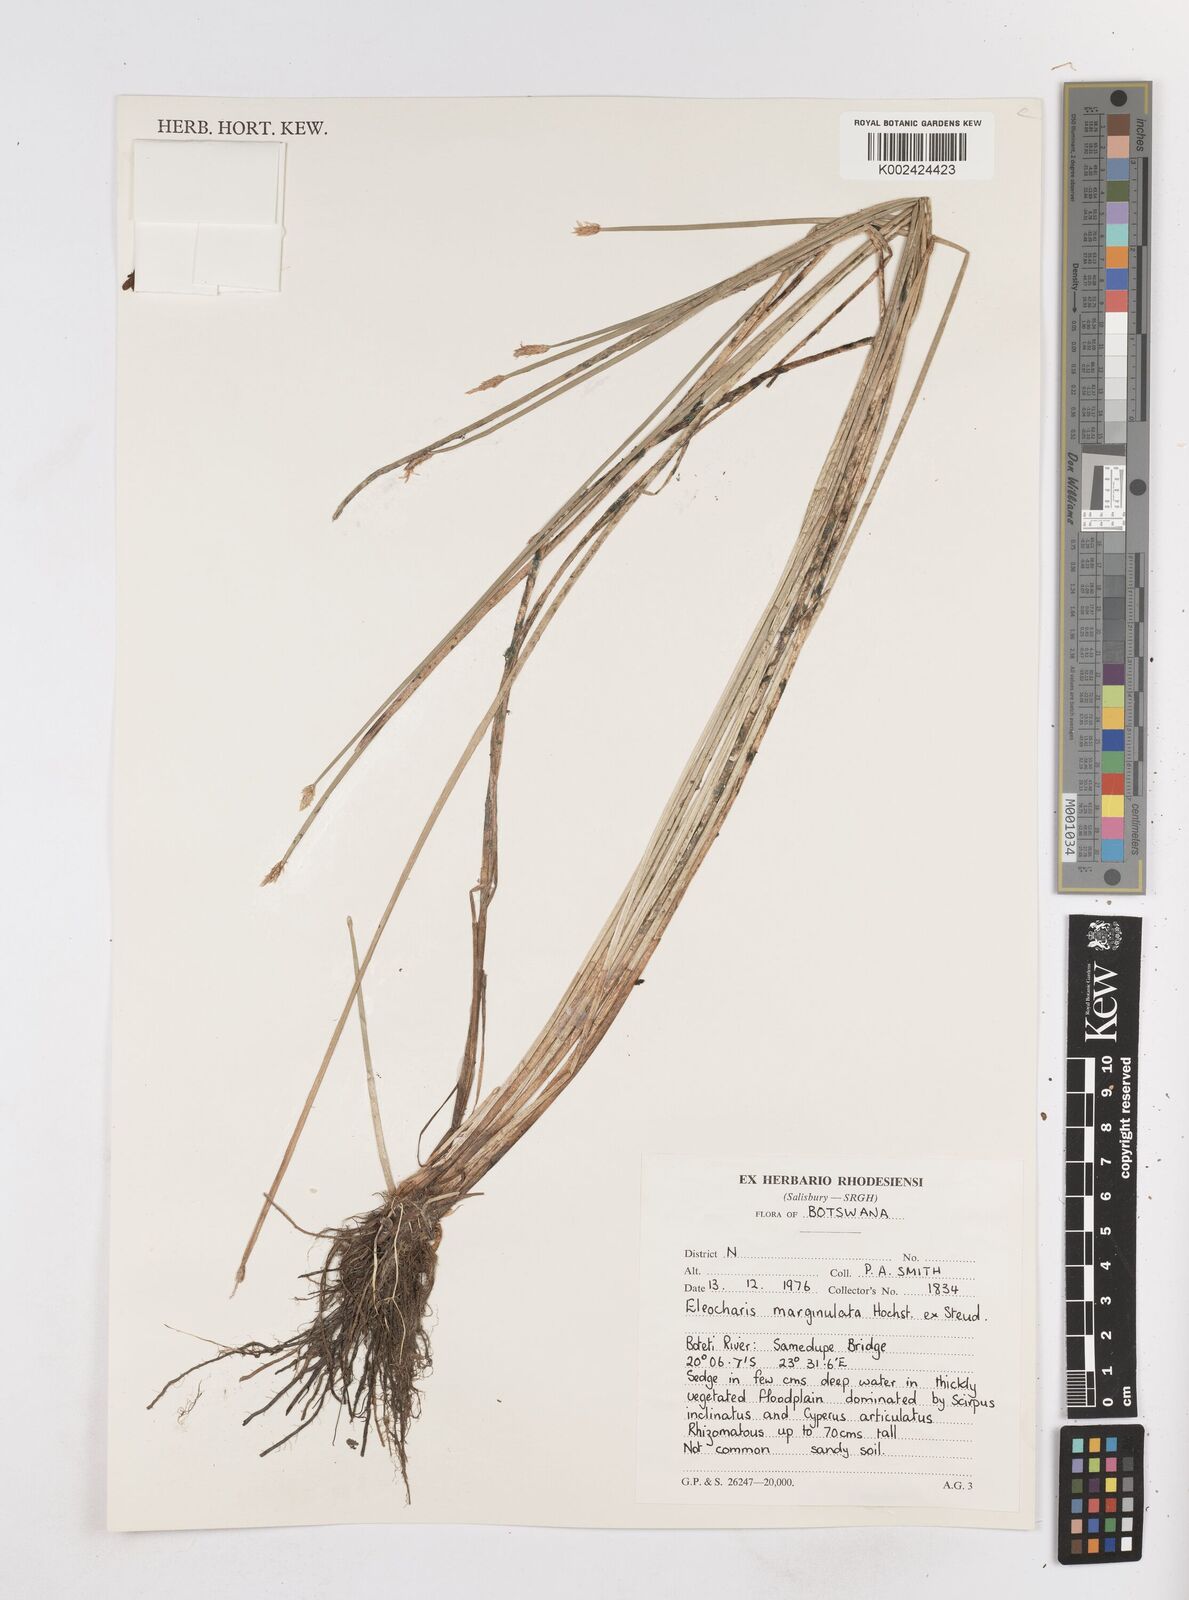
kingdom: Plantae
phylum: Tracheophyta
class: Liliopsida
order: Poales
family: Cyperaceae
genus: Eleocharis
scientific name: Eleocharis marginulata
